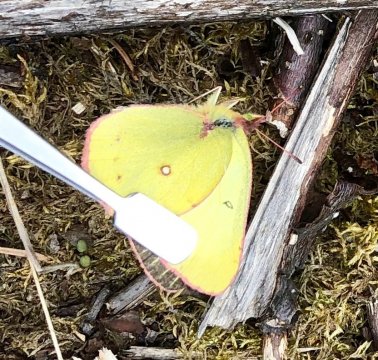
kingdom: Animalia
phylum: Arthropoda
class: Insecta
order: Lepidoptera
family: Pieridae
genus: Colias
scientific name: Colias gigantea
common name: Giant Sulphur
